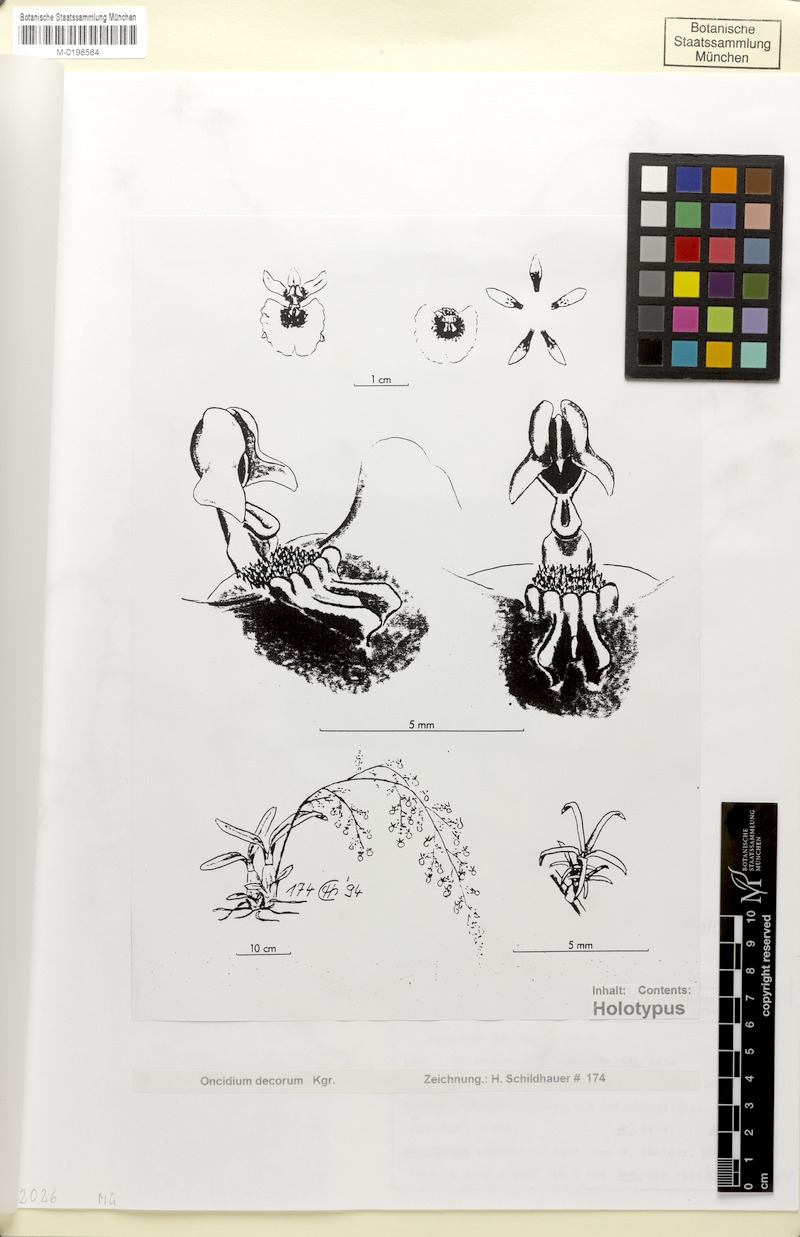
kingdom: Plantae
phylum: Tracheophyta
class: Liliopsida
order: Asparagales
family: Orchidaceae
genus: Oncidium
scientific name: Oncidium decorum
